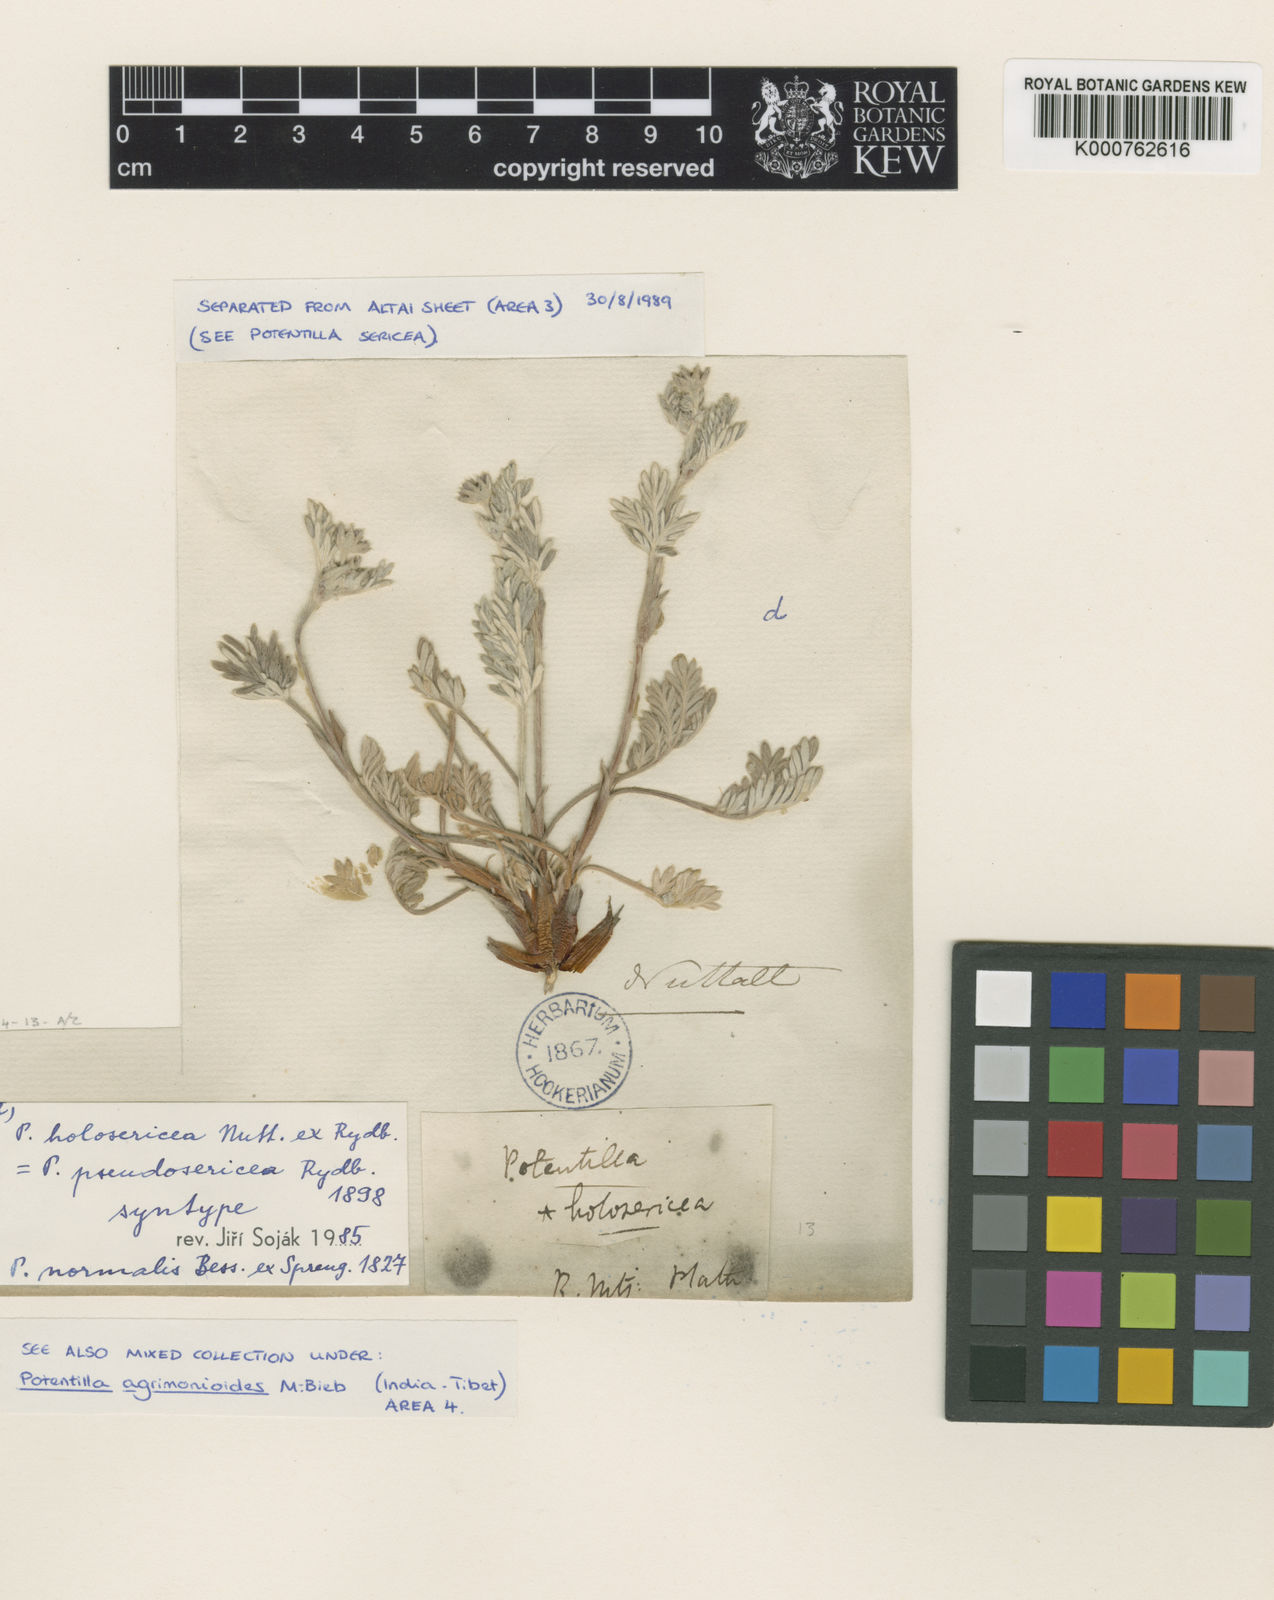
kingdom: Plantae
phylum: Tracheophyta
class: Magnoliopsida
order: Rosales
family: Rosaceae
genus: Potentilla
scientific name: Potentilla
